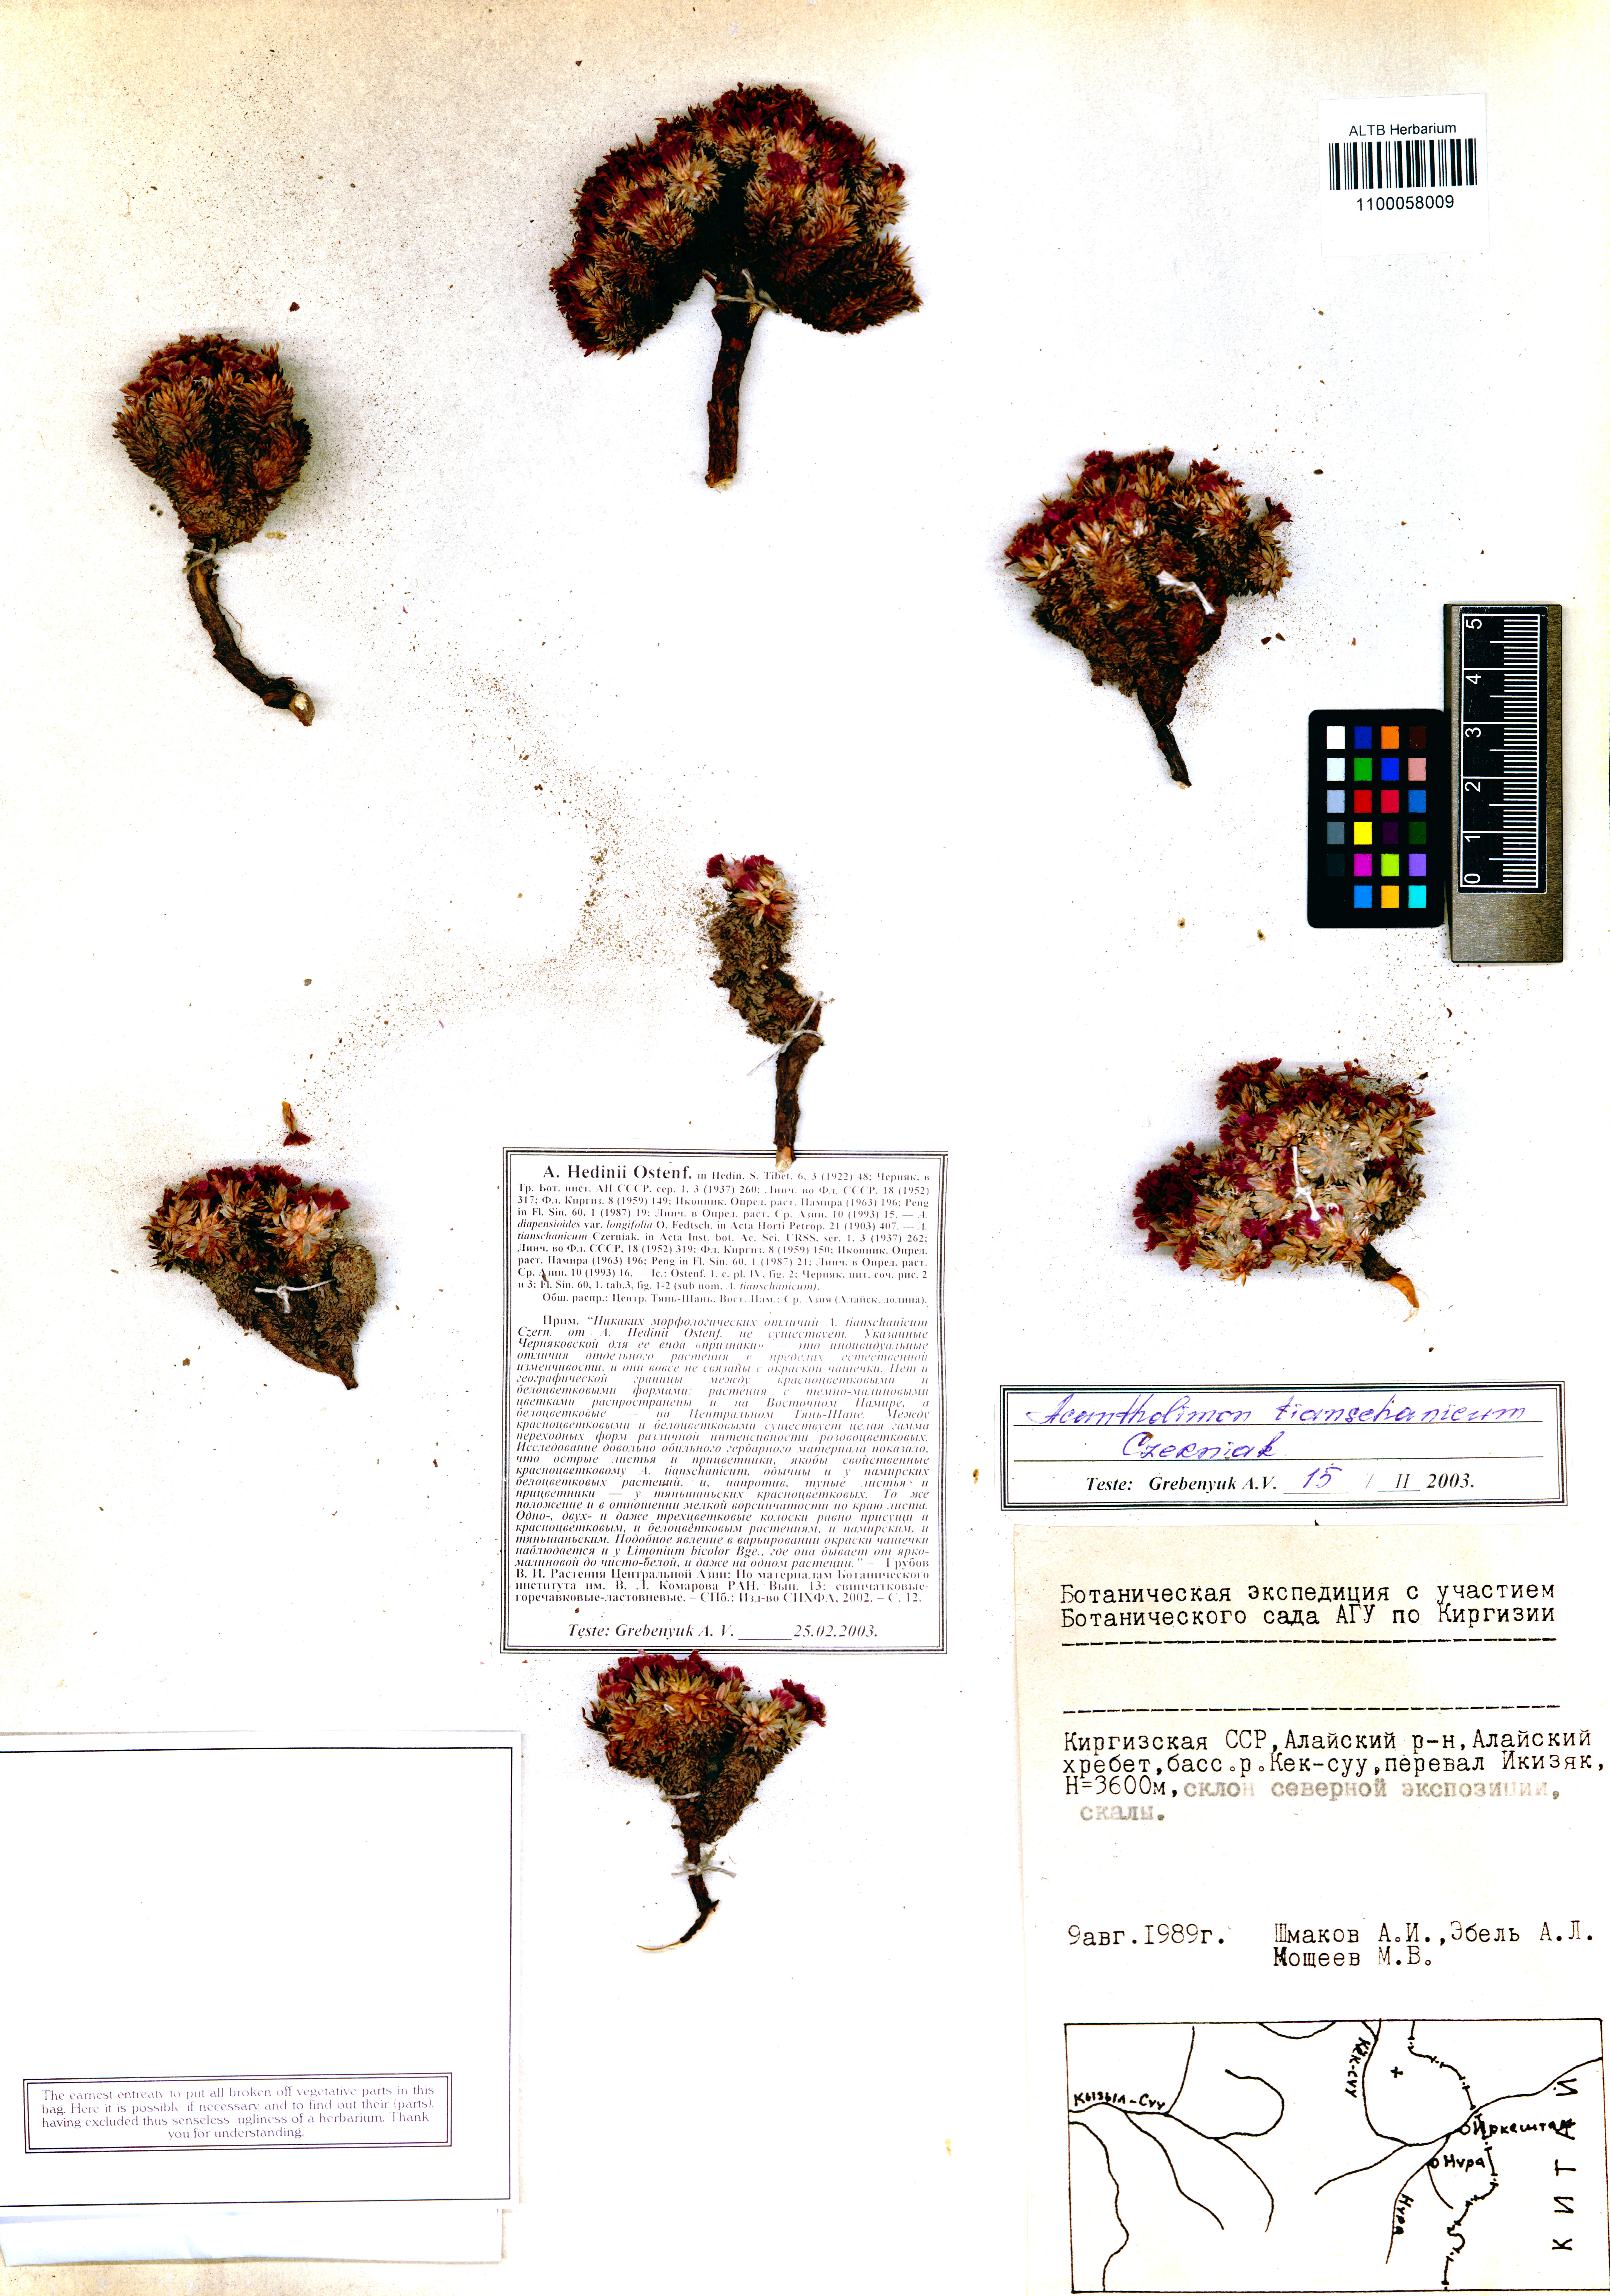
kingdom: Plantae
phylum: Tracheophyta
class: Magnoliopsida
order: Caryophyllales
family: Plumbaginaceae
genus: Acantholimon
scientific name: Acantholimon tianschanicum
